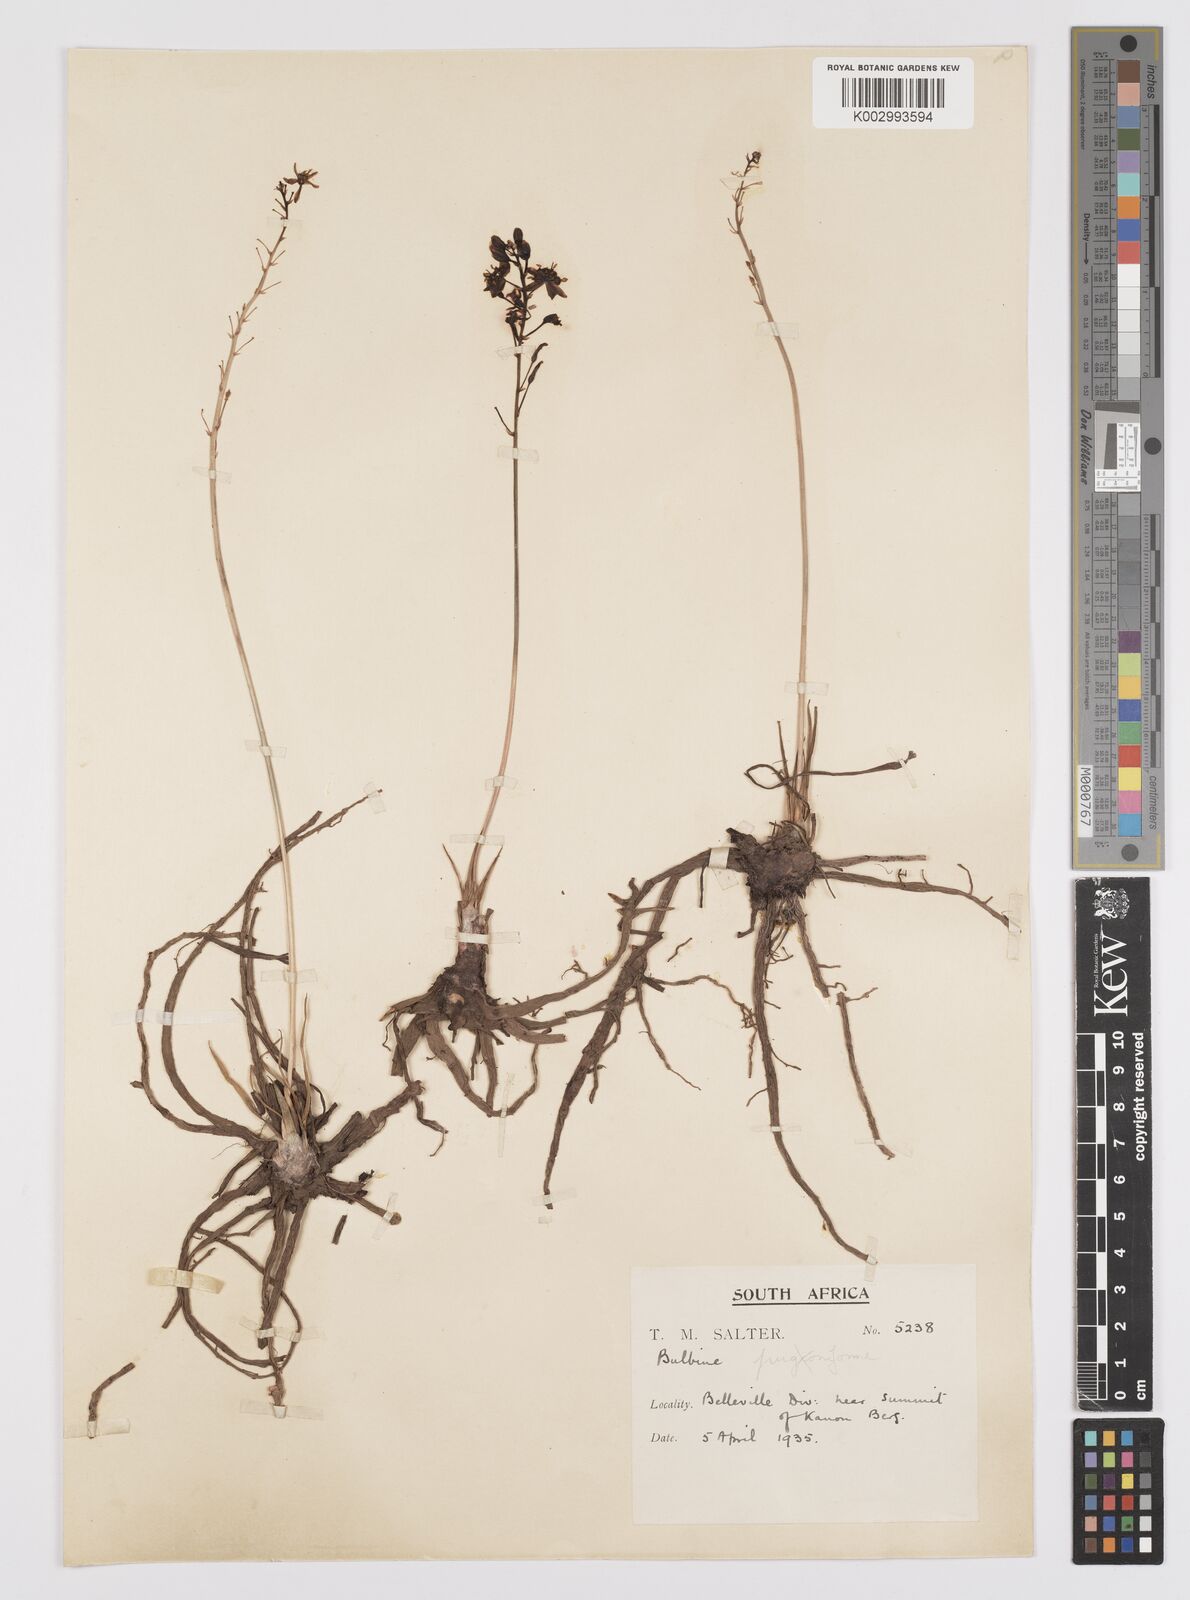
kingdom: Plantae
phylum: Tracheophyta
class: Liliopsida
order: Asparagales
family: Amaryllidaceae
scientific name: Amaryllidaceae
